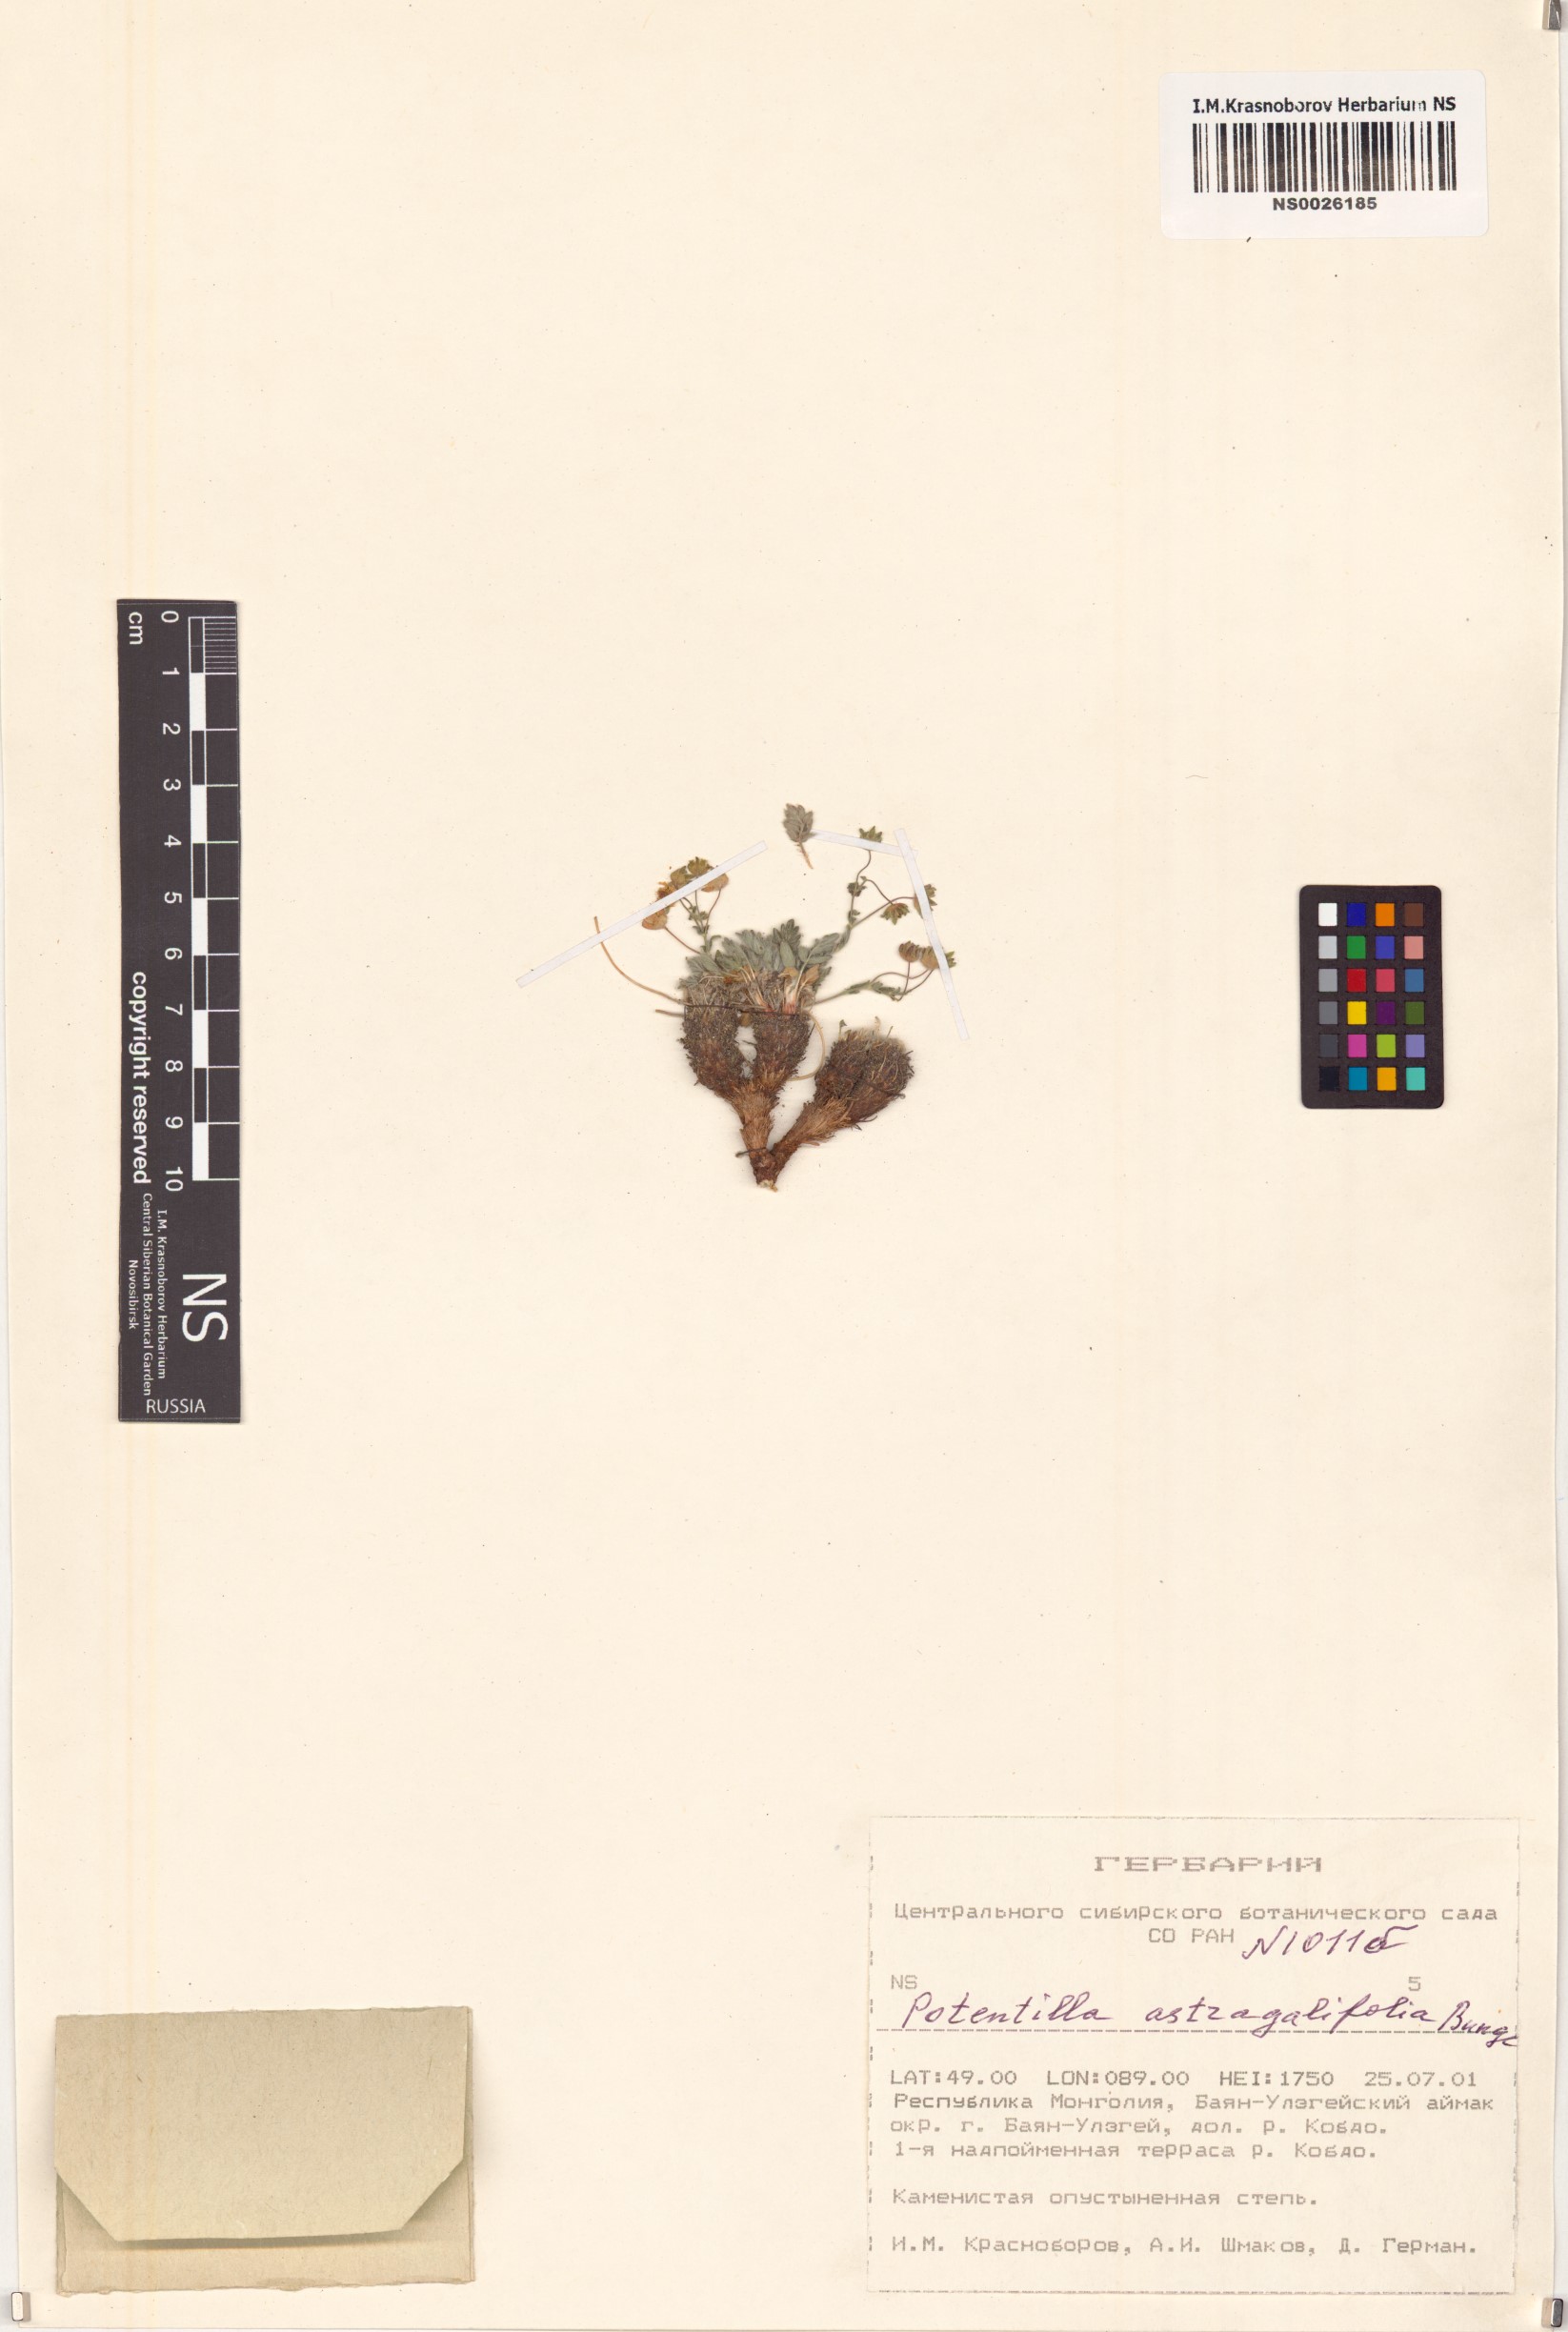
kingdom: Plantae
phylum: Tracheophyta
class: Magnoliopsida
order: Rosales
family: Rosaceae
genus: Potentilla
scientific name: Potentilla astragalifolia
